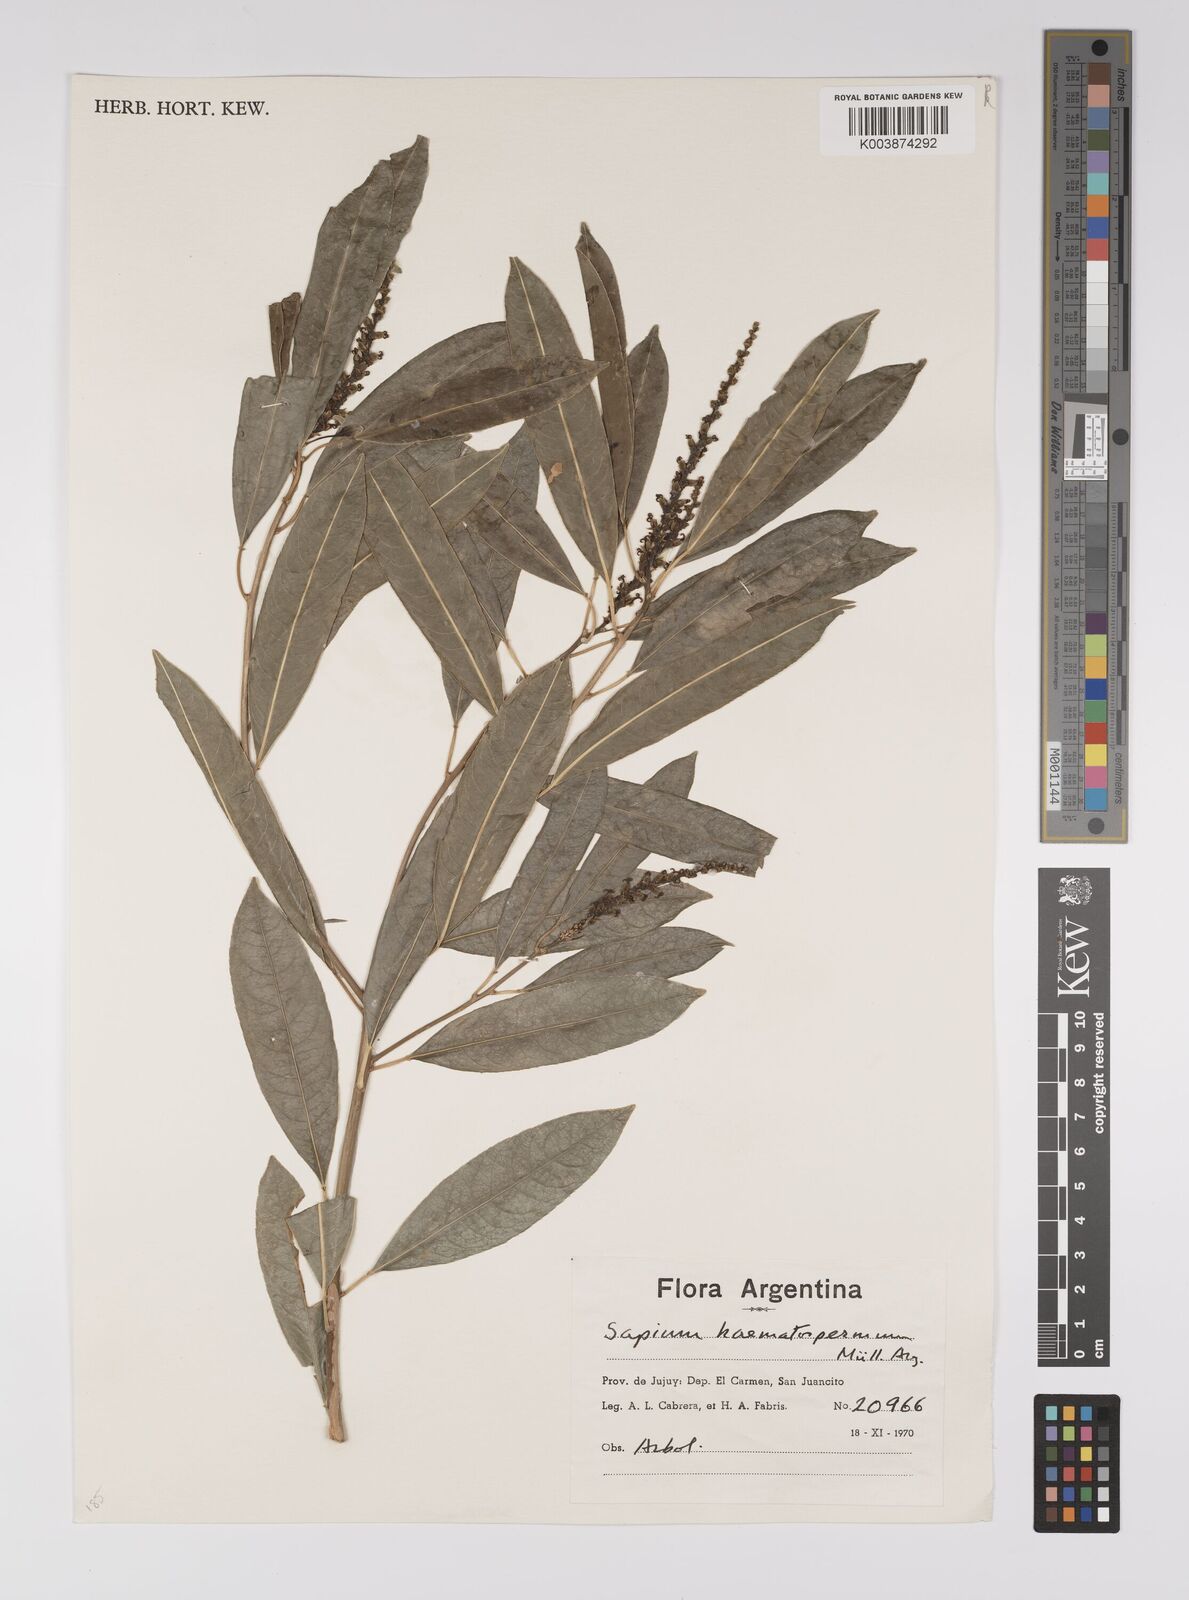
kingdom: Plantae
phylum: Tracheophyta
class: Magnoliopsida
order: Malpighiales
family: Euphorbiaceae
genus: Sapium
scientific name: Sapium haematospermum
